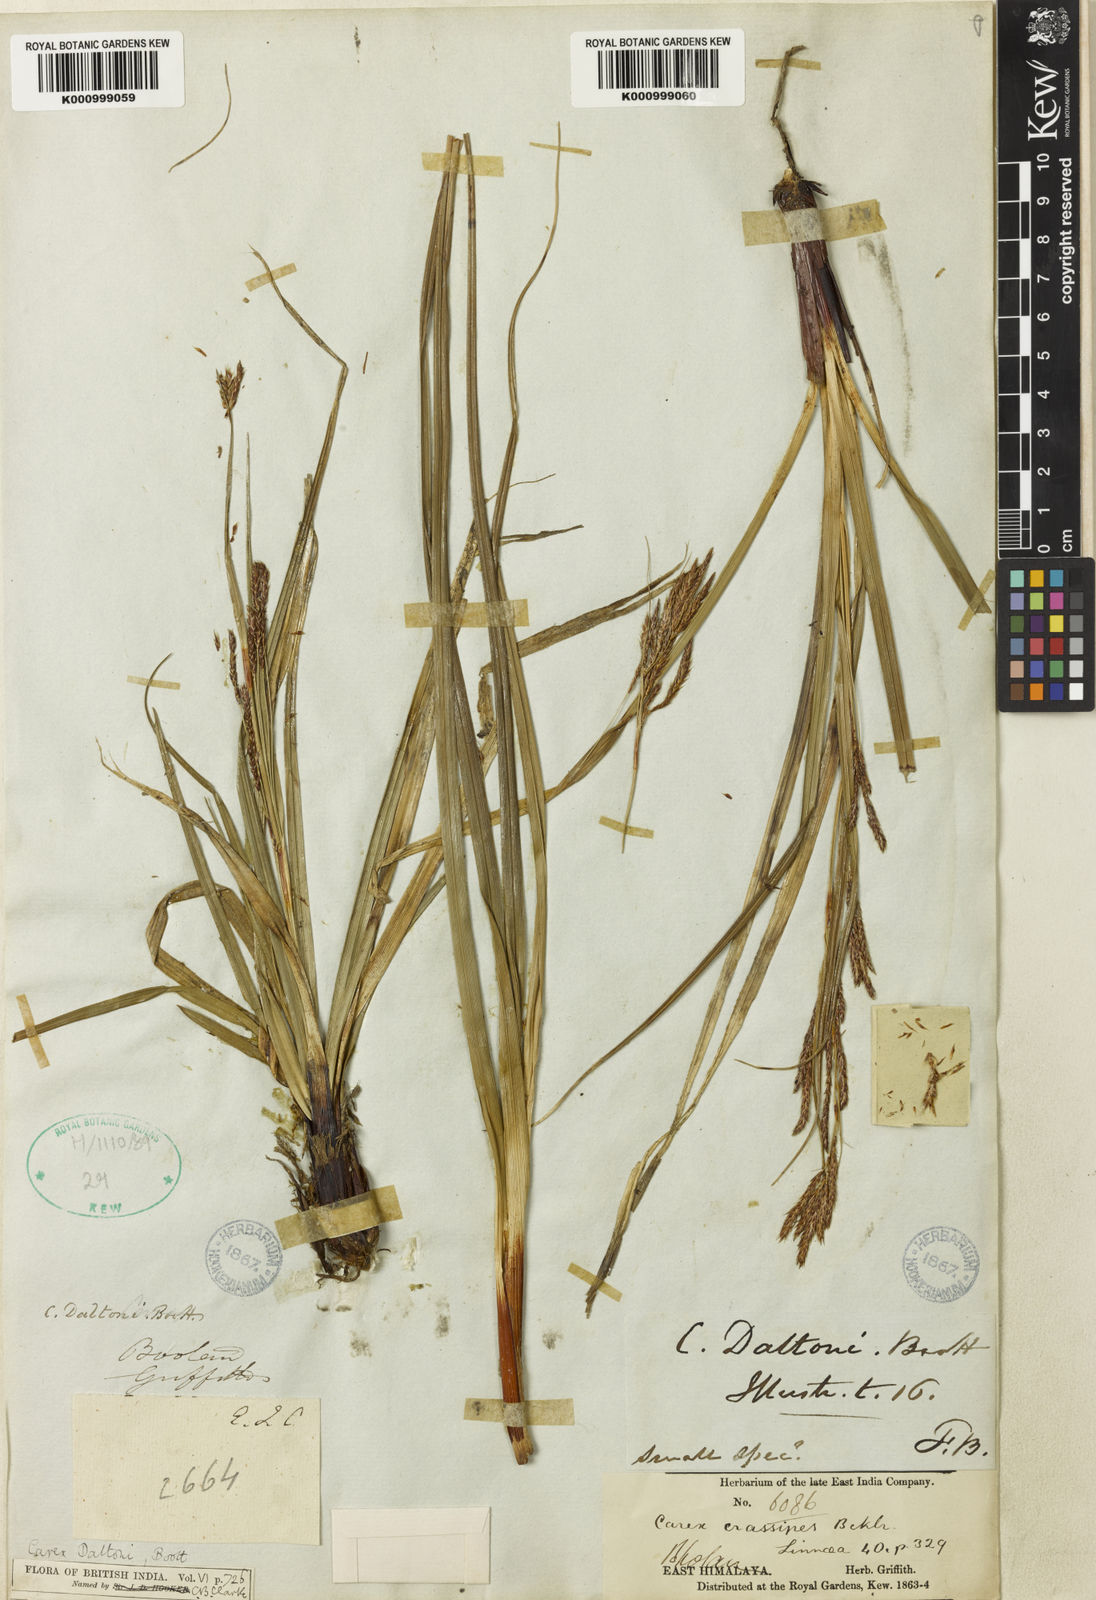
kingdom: Plantae
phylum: Tracheophyta
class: Liliopsida
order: Poales
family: Cyperaceae
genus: Carex
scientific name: Carex daltoni
